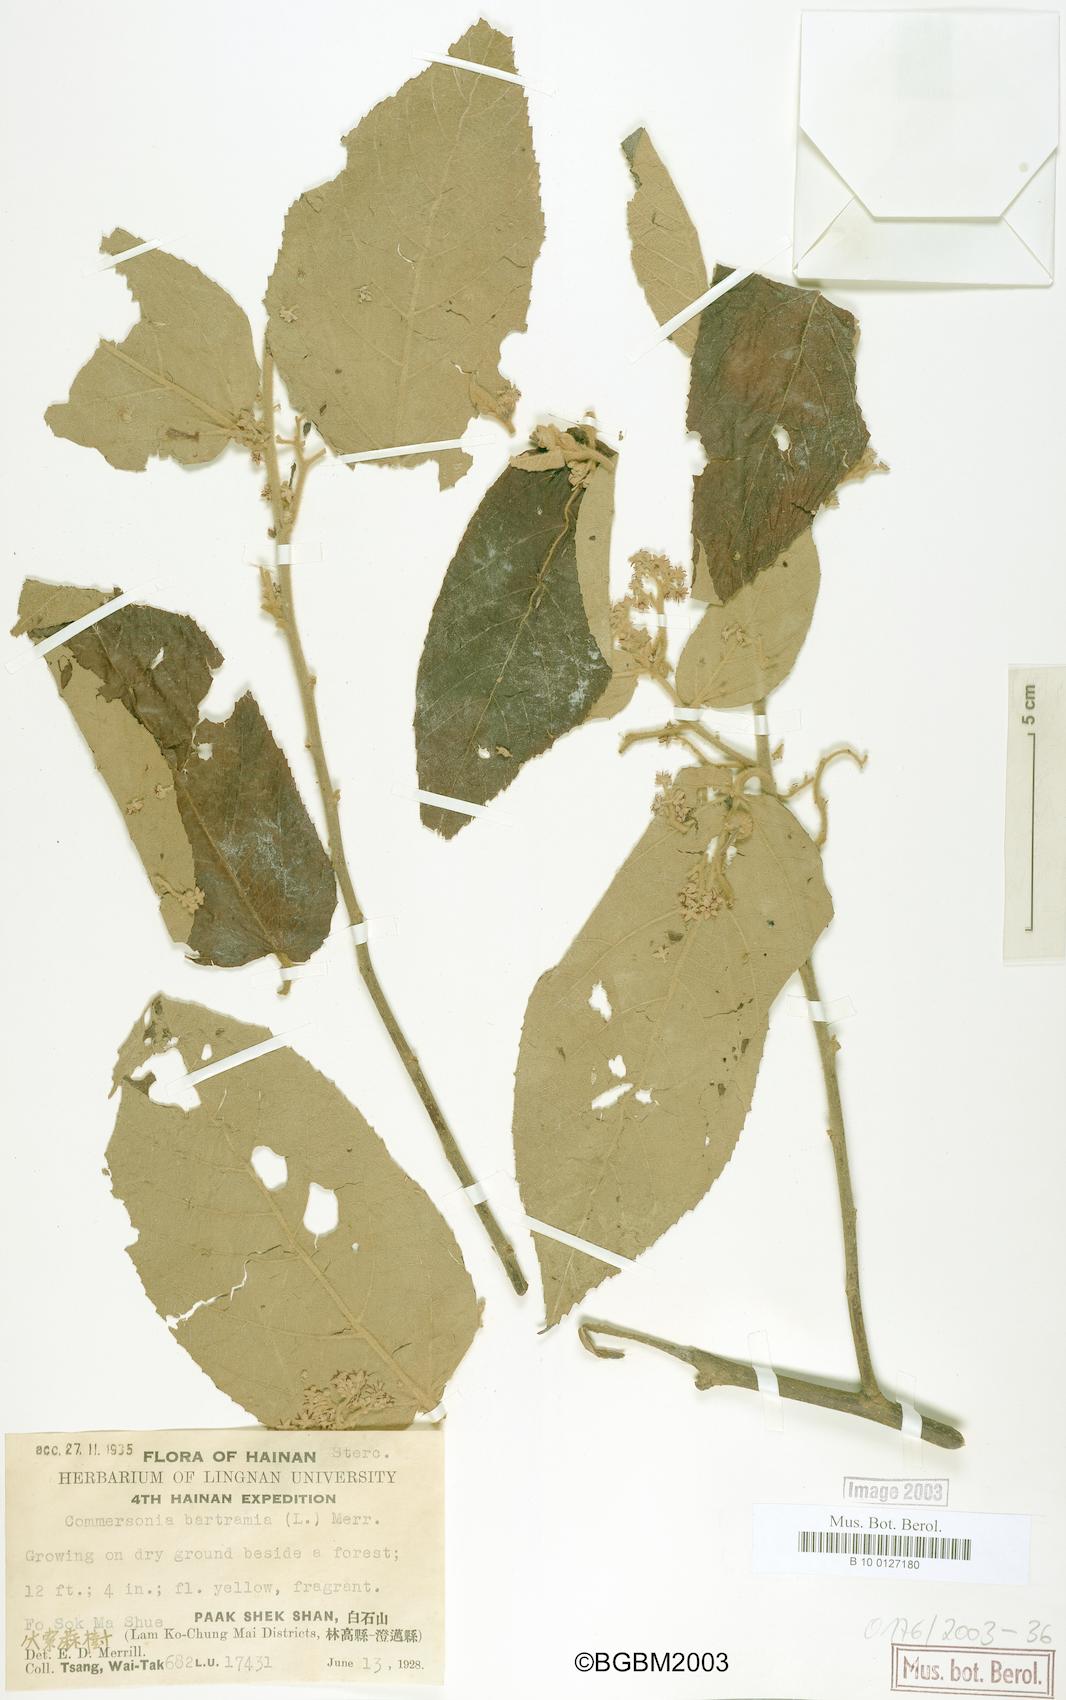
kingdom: Plantae
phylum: Tracheophyta
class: Magnoliopsida
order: Malvales
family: Malvaceae
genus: Commersonia
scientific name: Commersonia bartramia
